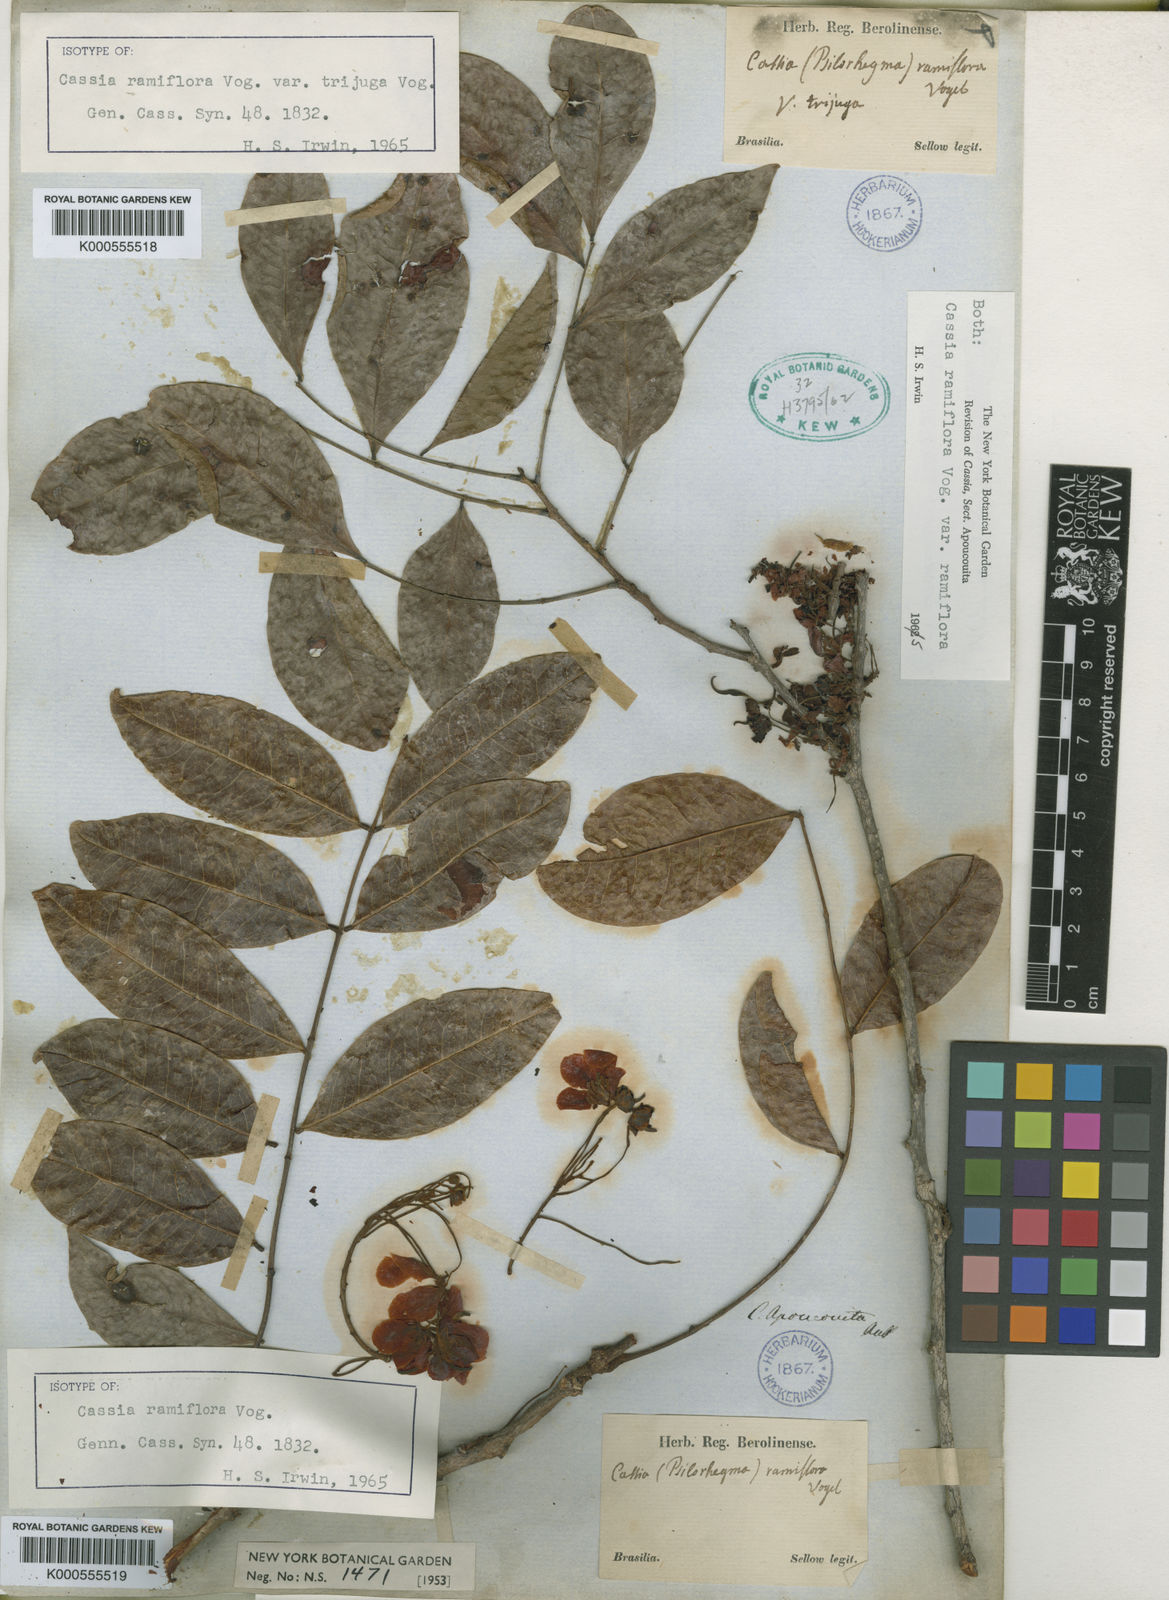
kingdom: Plantae
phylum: Tracheophyta
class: Magnoliopsida
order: Fabales
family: Fabaceae
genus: Chamaecrista
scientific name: Chamaecrista ensiformis
